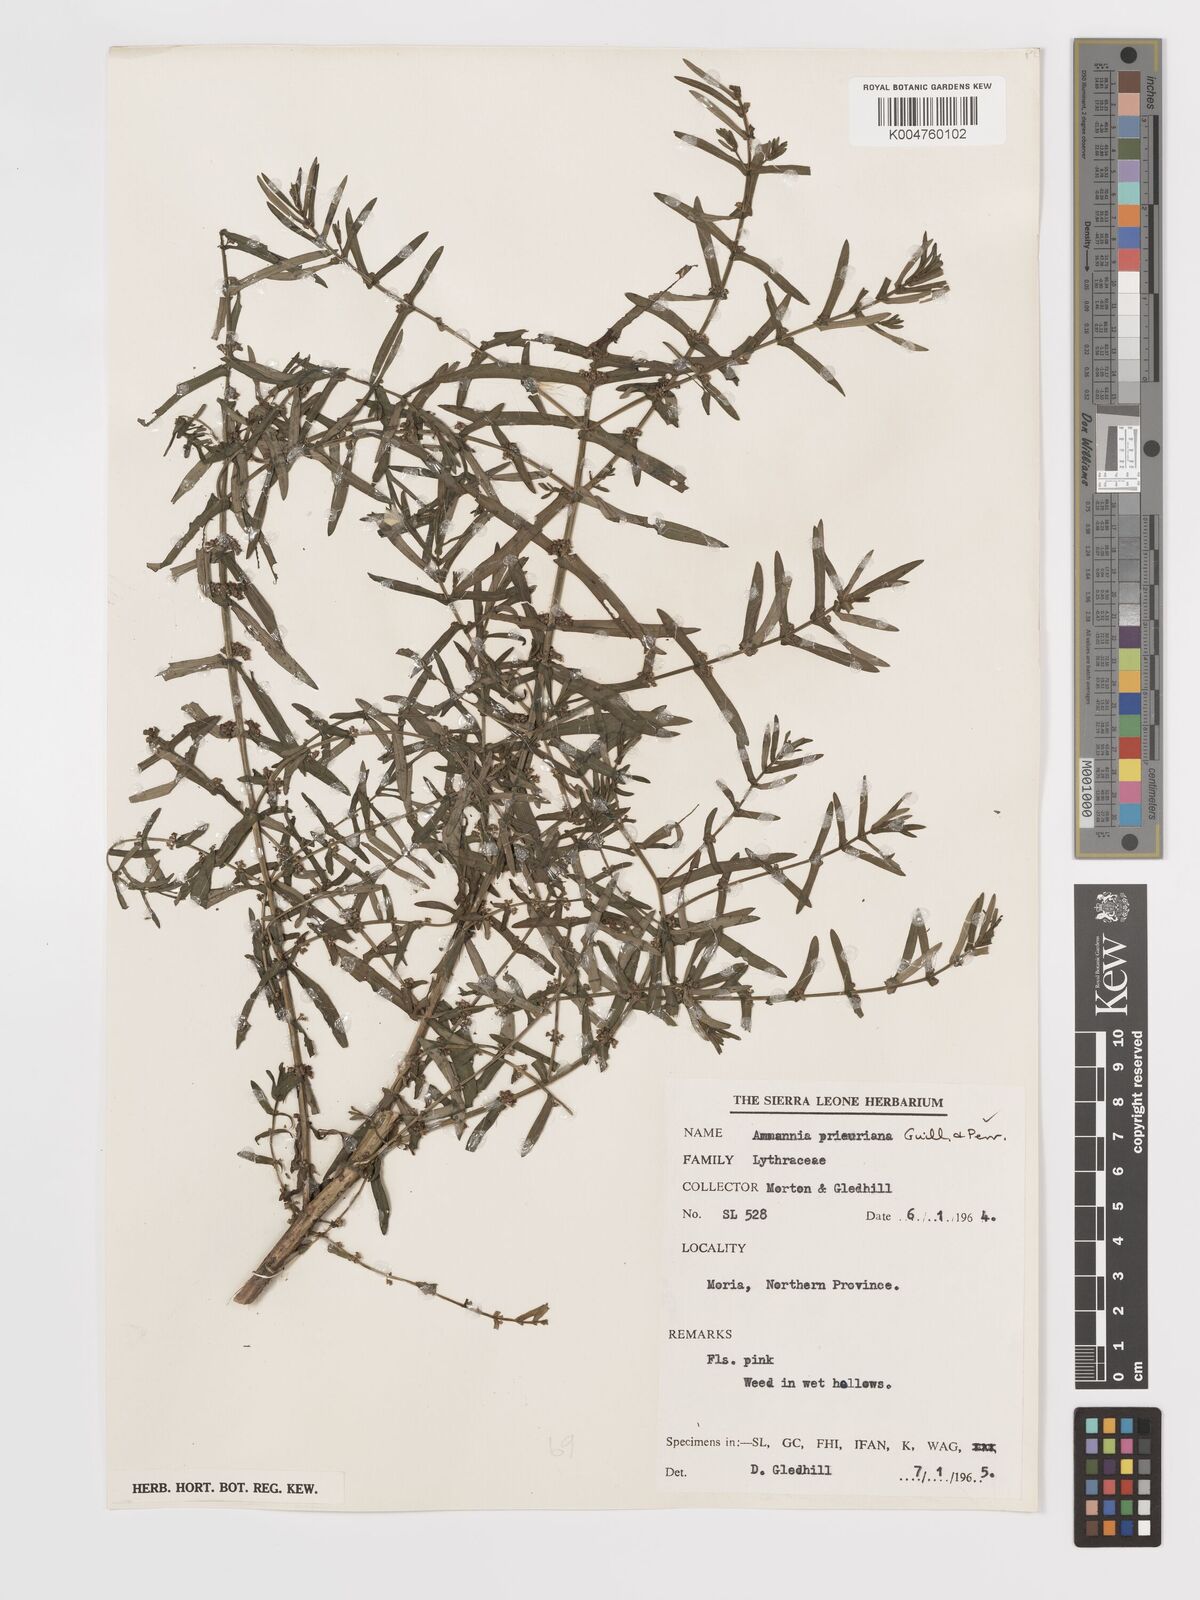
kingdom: Plantae
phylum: Tracheophyta
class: Magnoliopsida
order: Myrtales
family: Lythraceae
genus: Ammannia
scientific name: Ammannia prieuriana
